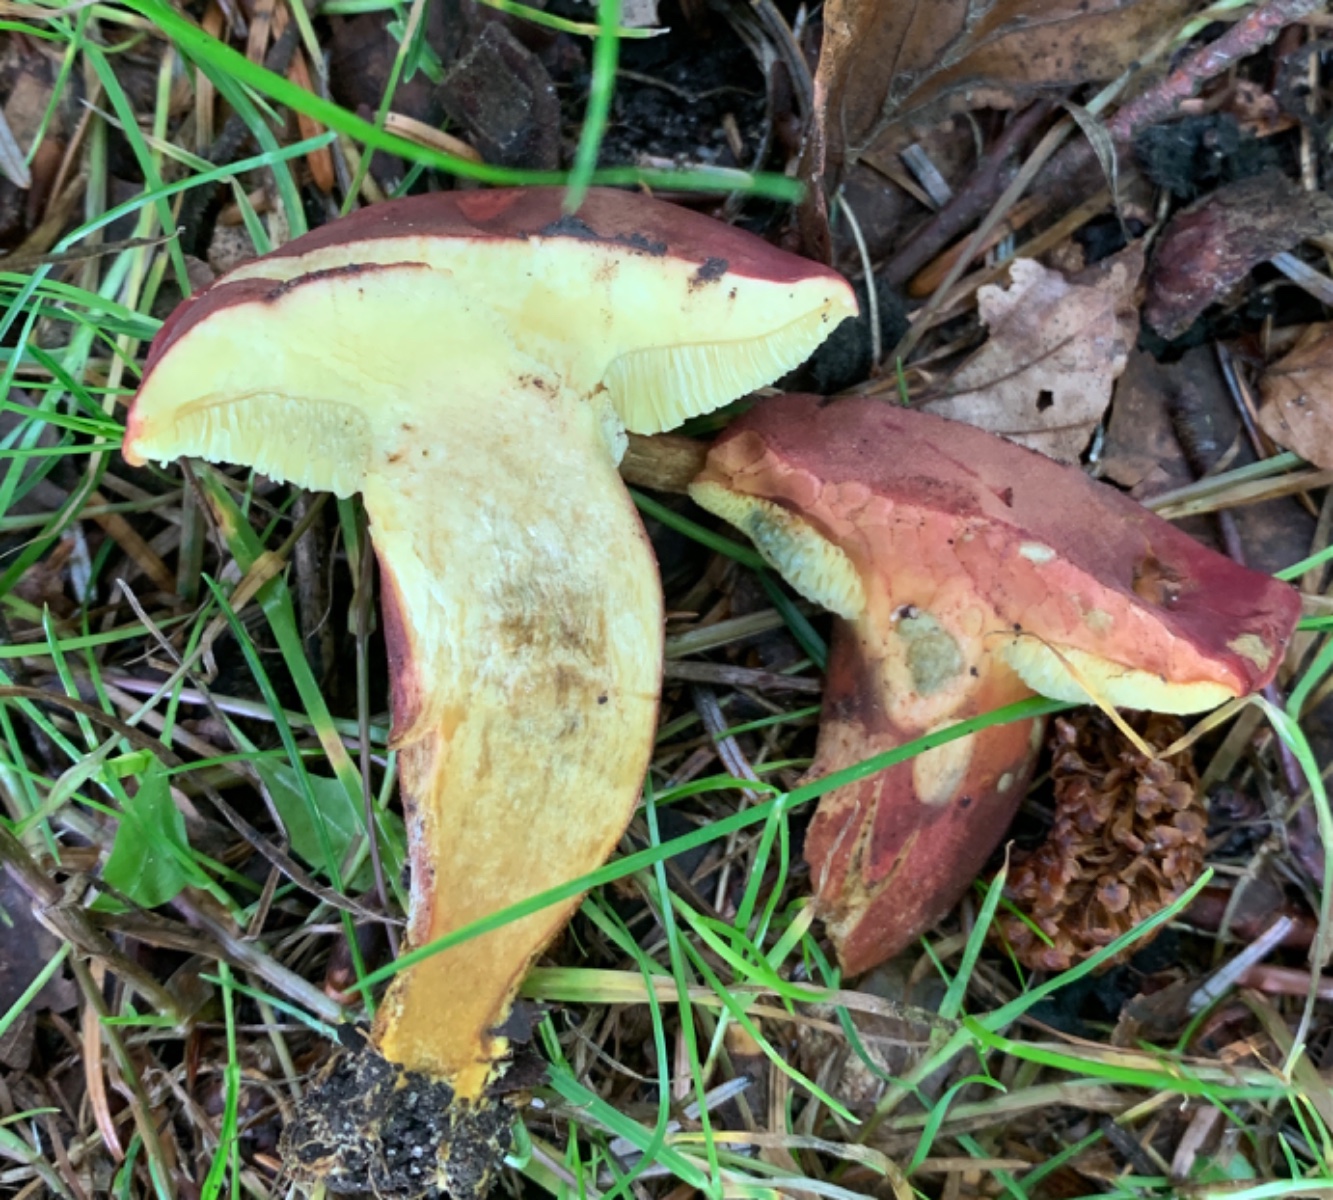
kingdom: Fungi
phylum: Basidiomycota
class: Agaricomycetes
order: Boletales
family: Boletaceae
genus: Hortiboletus
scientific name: Hortiboletus rubellus
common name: blodrød rørhat
